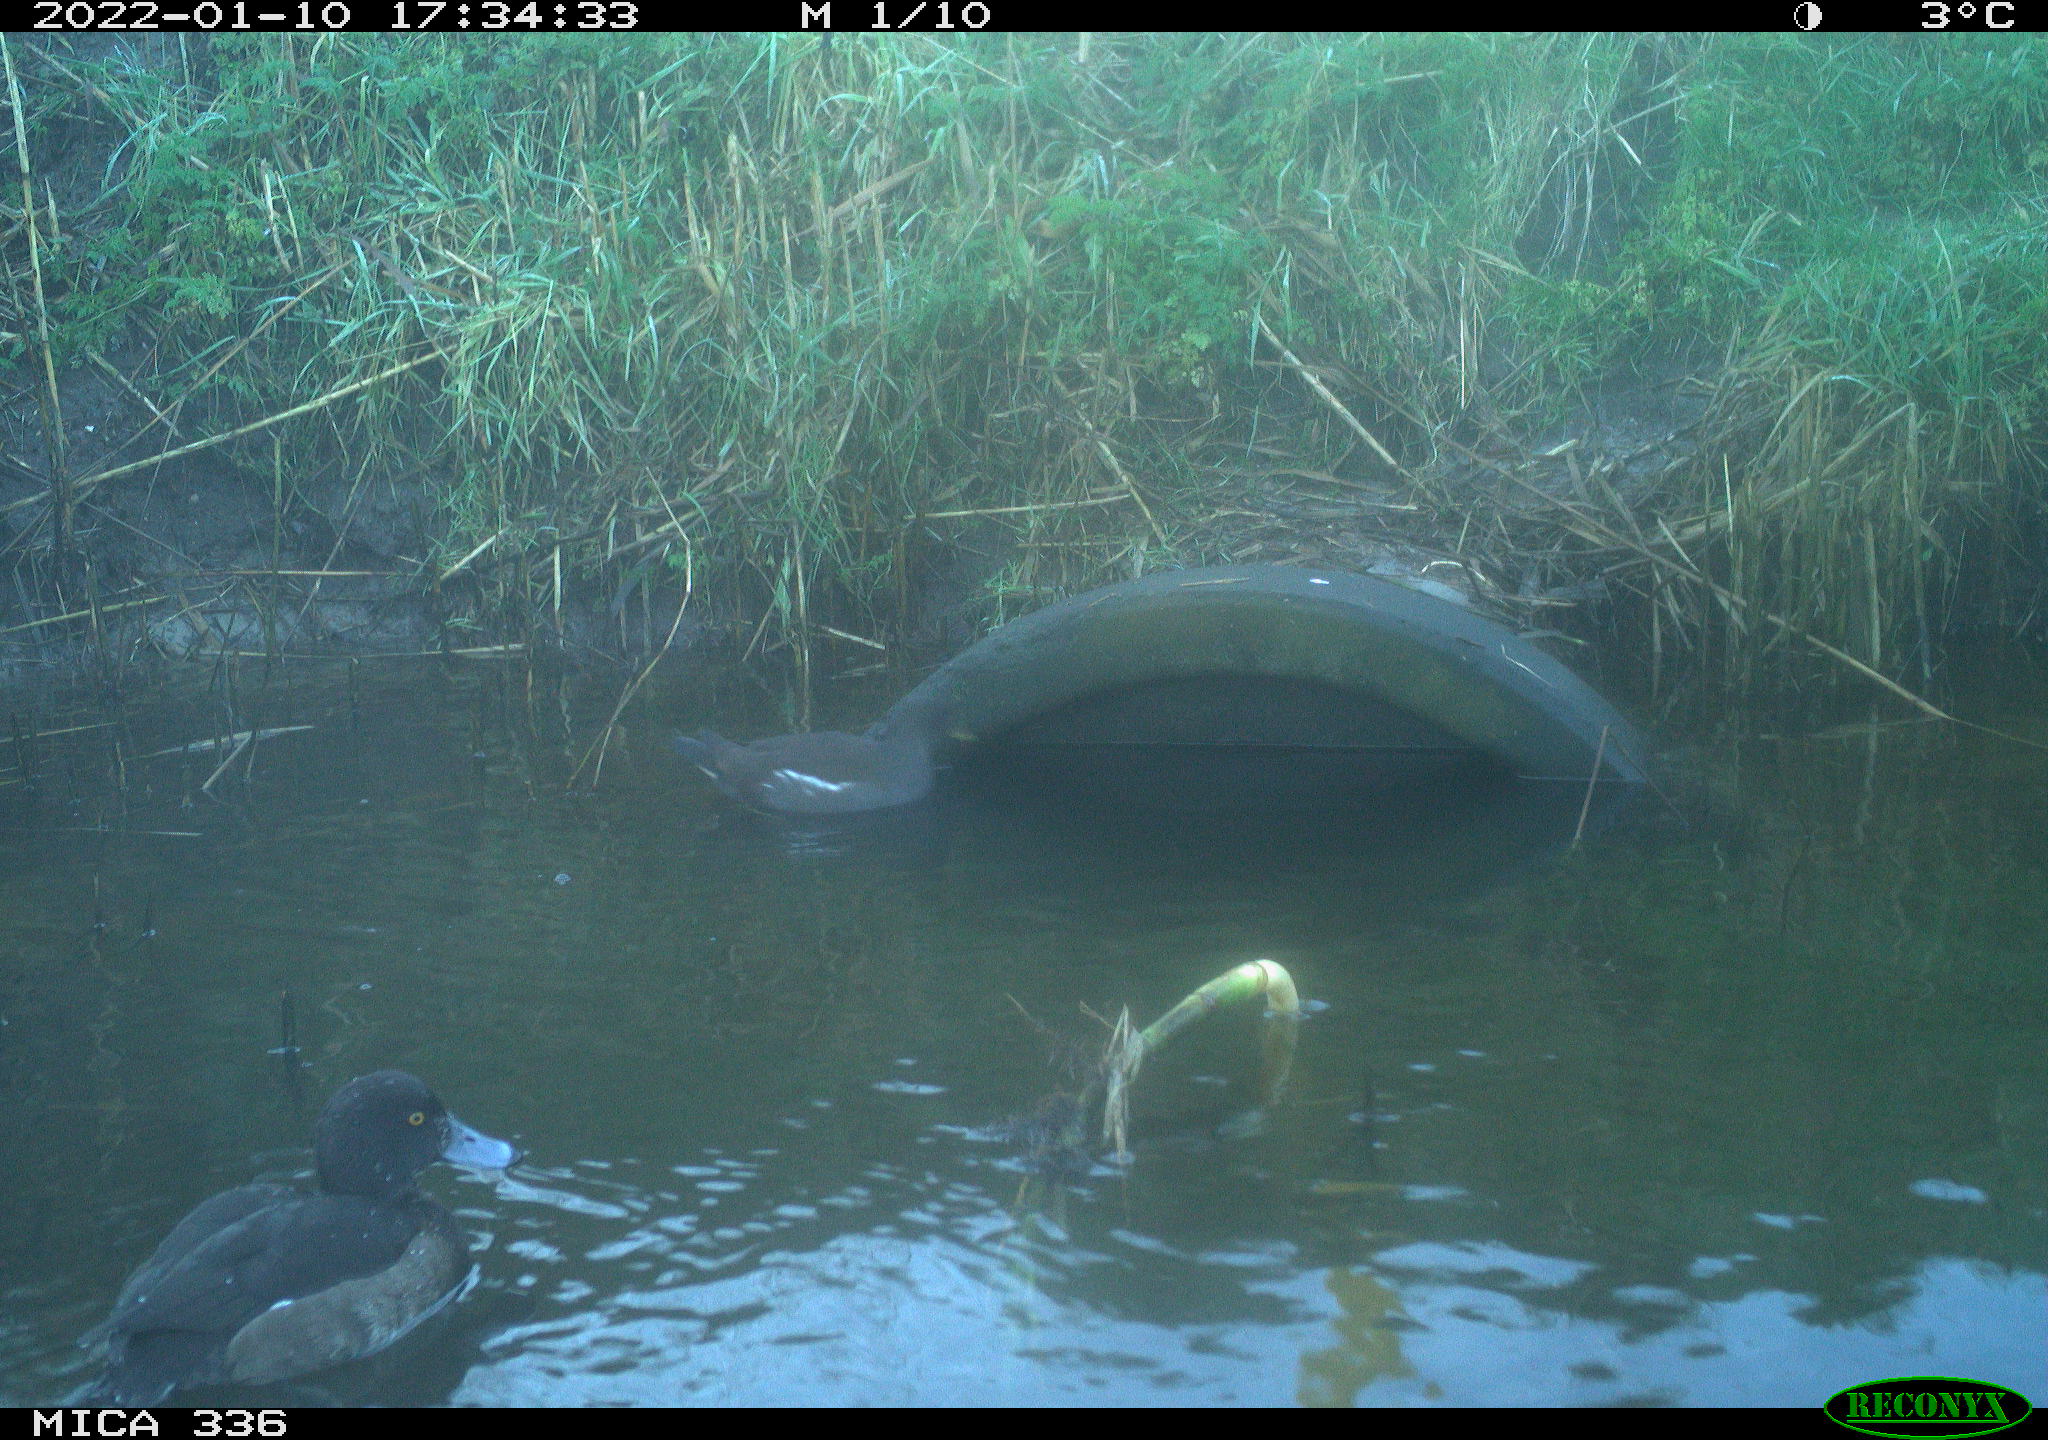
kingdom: Animalia
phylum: Chordata
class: Aves
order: Anseriformes
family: Anatidae
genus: Aythya
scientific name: Aythya fuligula
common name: Tufted duck
